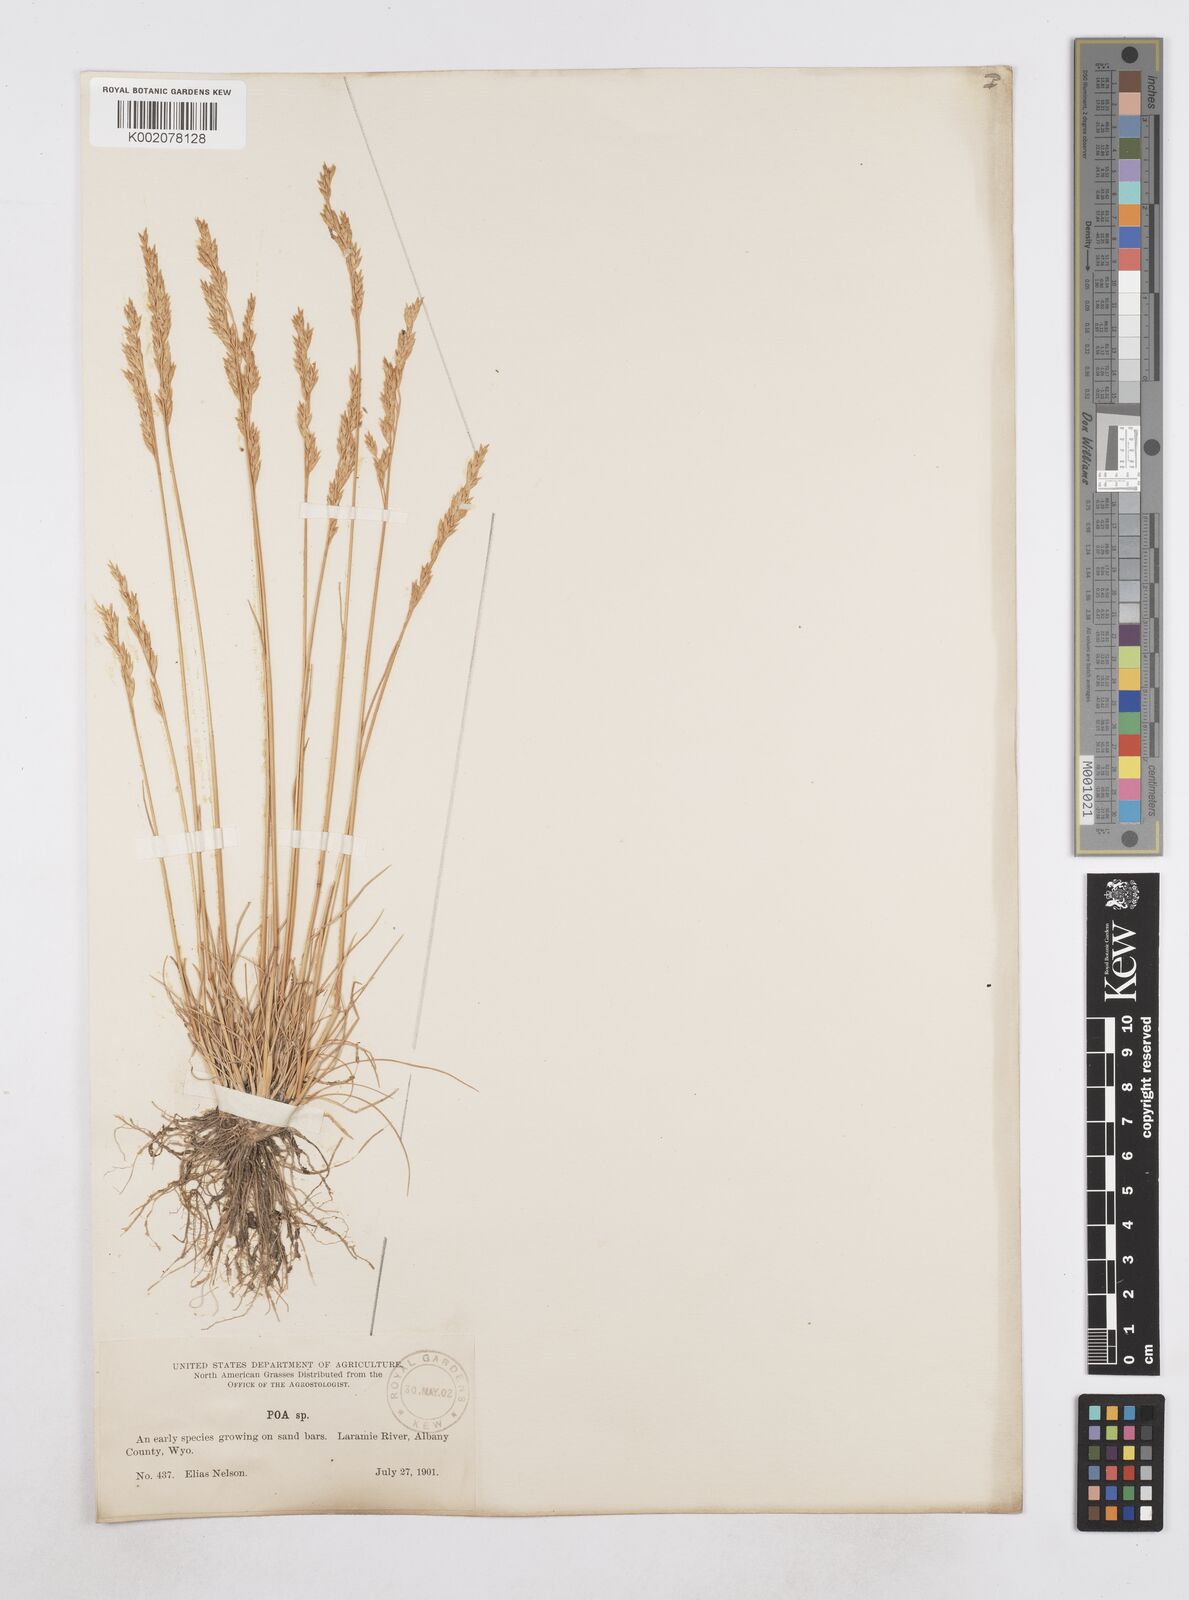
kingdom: Plantae
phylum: Tracheophyta
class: Liliopsida
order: Poales
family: Poaceae
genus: Poa
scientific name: Poa
